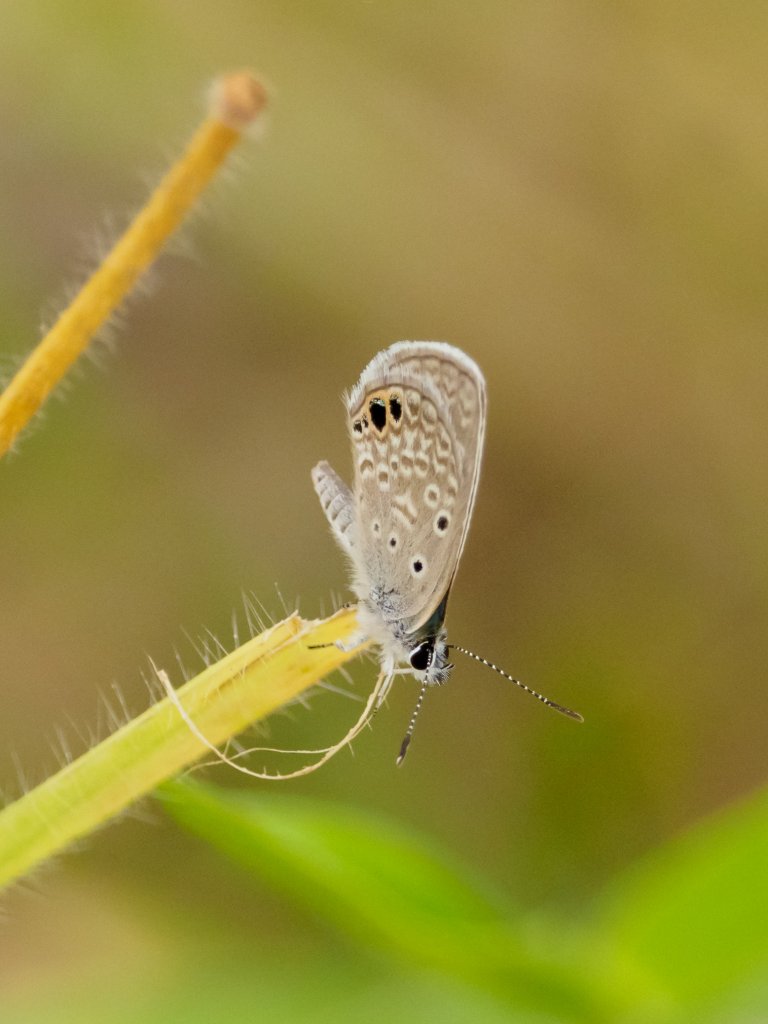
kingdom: Animalia
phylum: Arthropoda
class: Insecta
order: Lepidoptera
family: Lycaenidae
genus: Hemiargus
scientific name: Hemiargus ceraunus
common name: Ceraunus Blue
